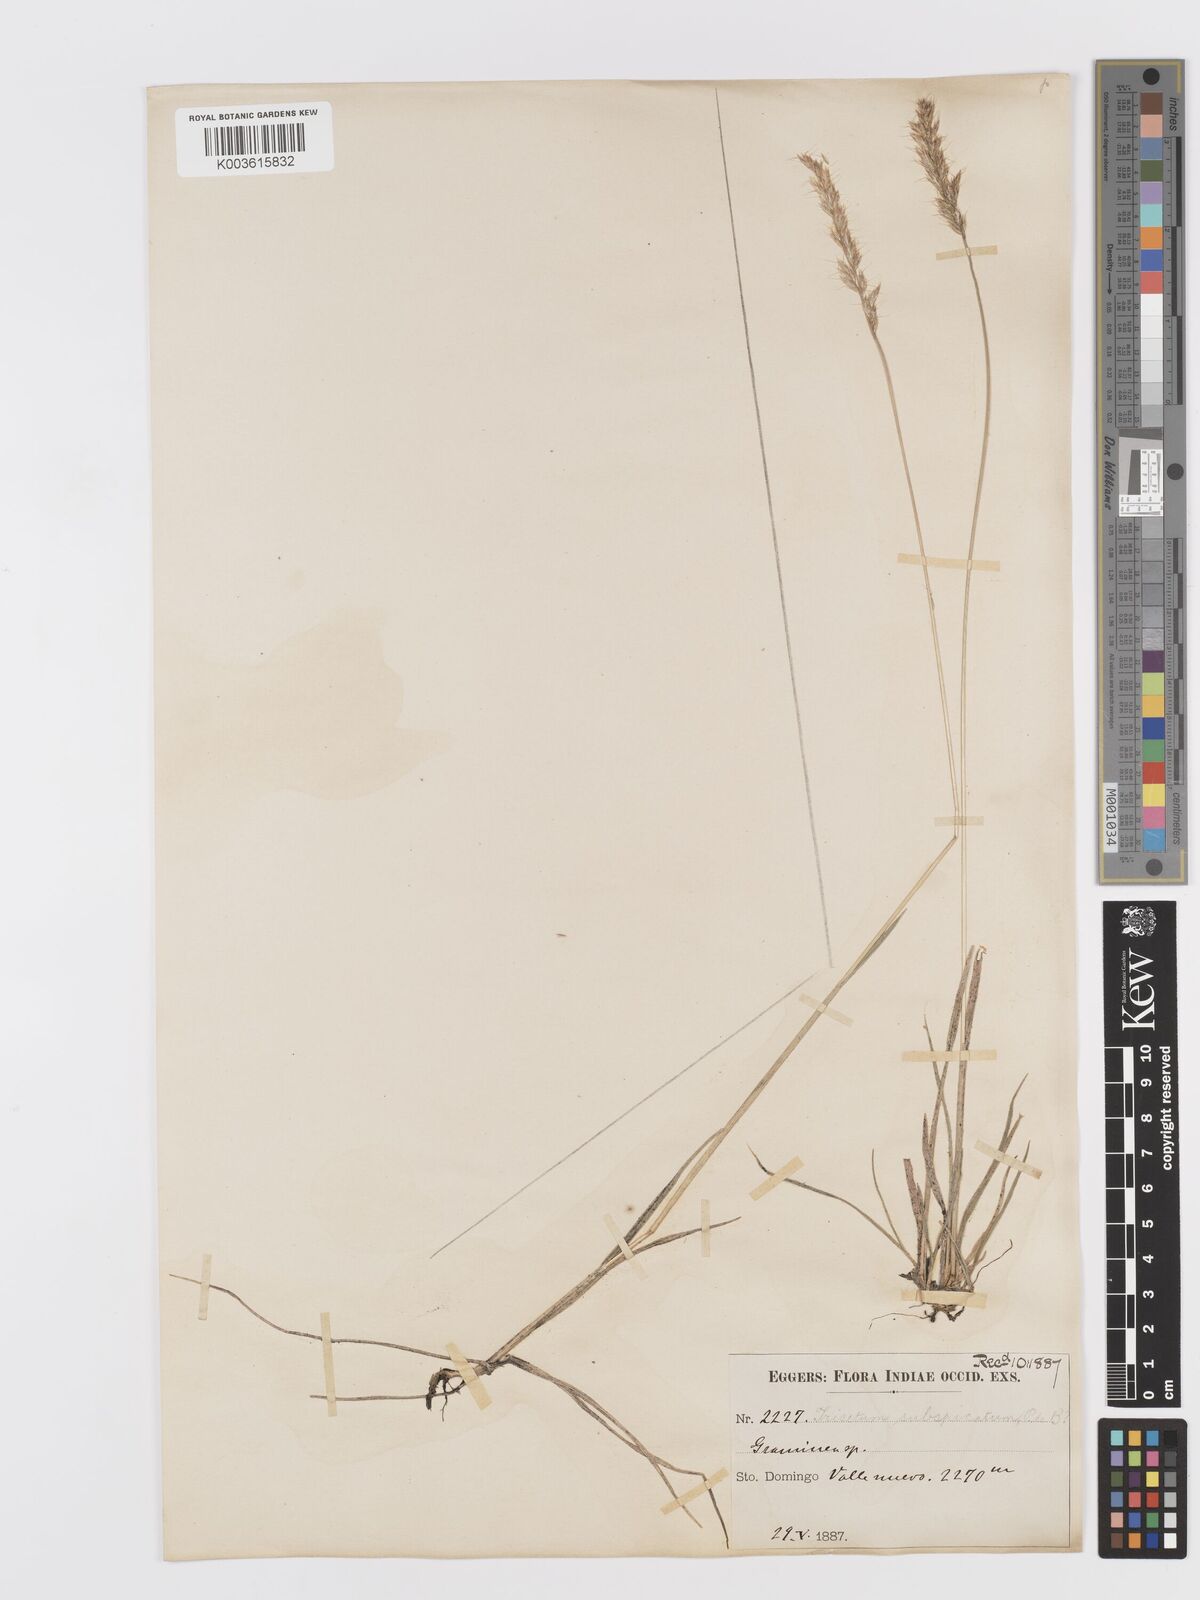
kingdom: Plantae
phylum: Tracheophyta
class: Liliopsida
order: Poales
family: Poaceae
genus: Koeleria
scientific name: Koeleria spicata
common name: Mountain trisetum
